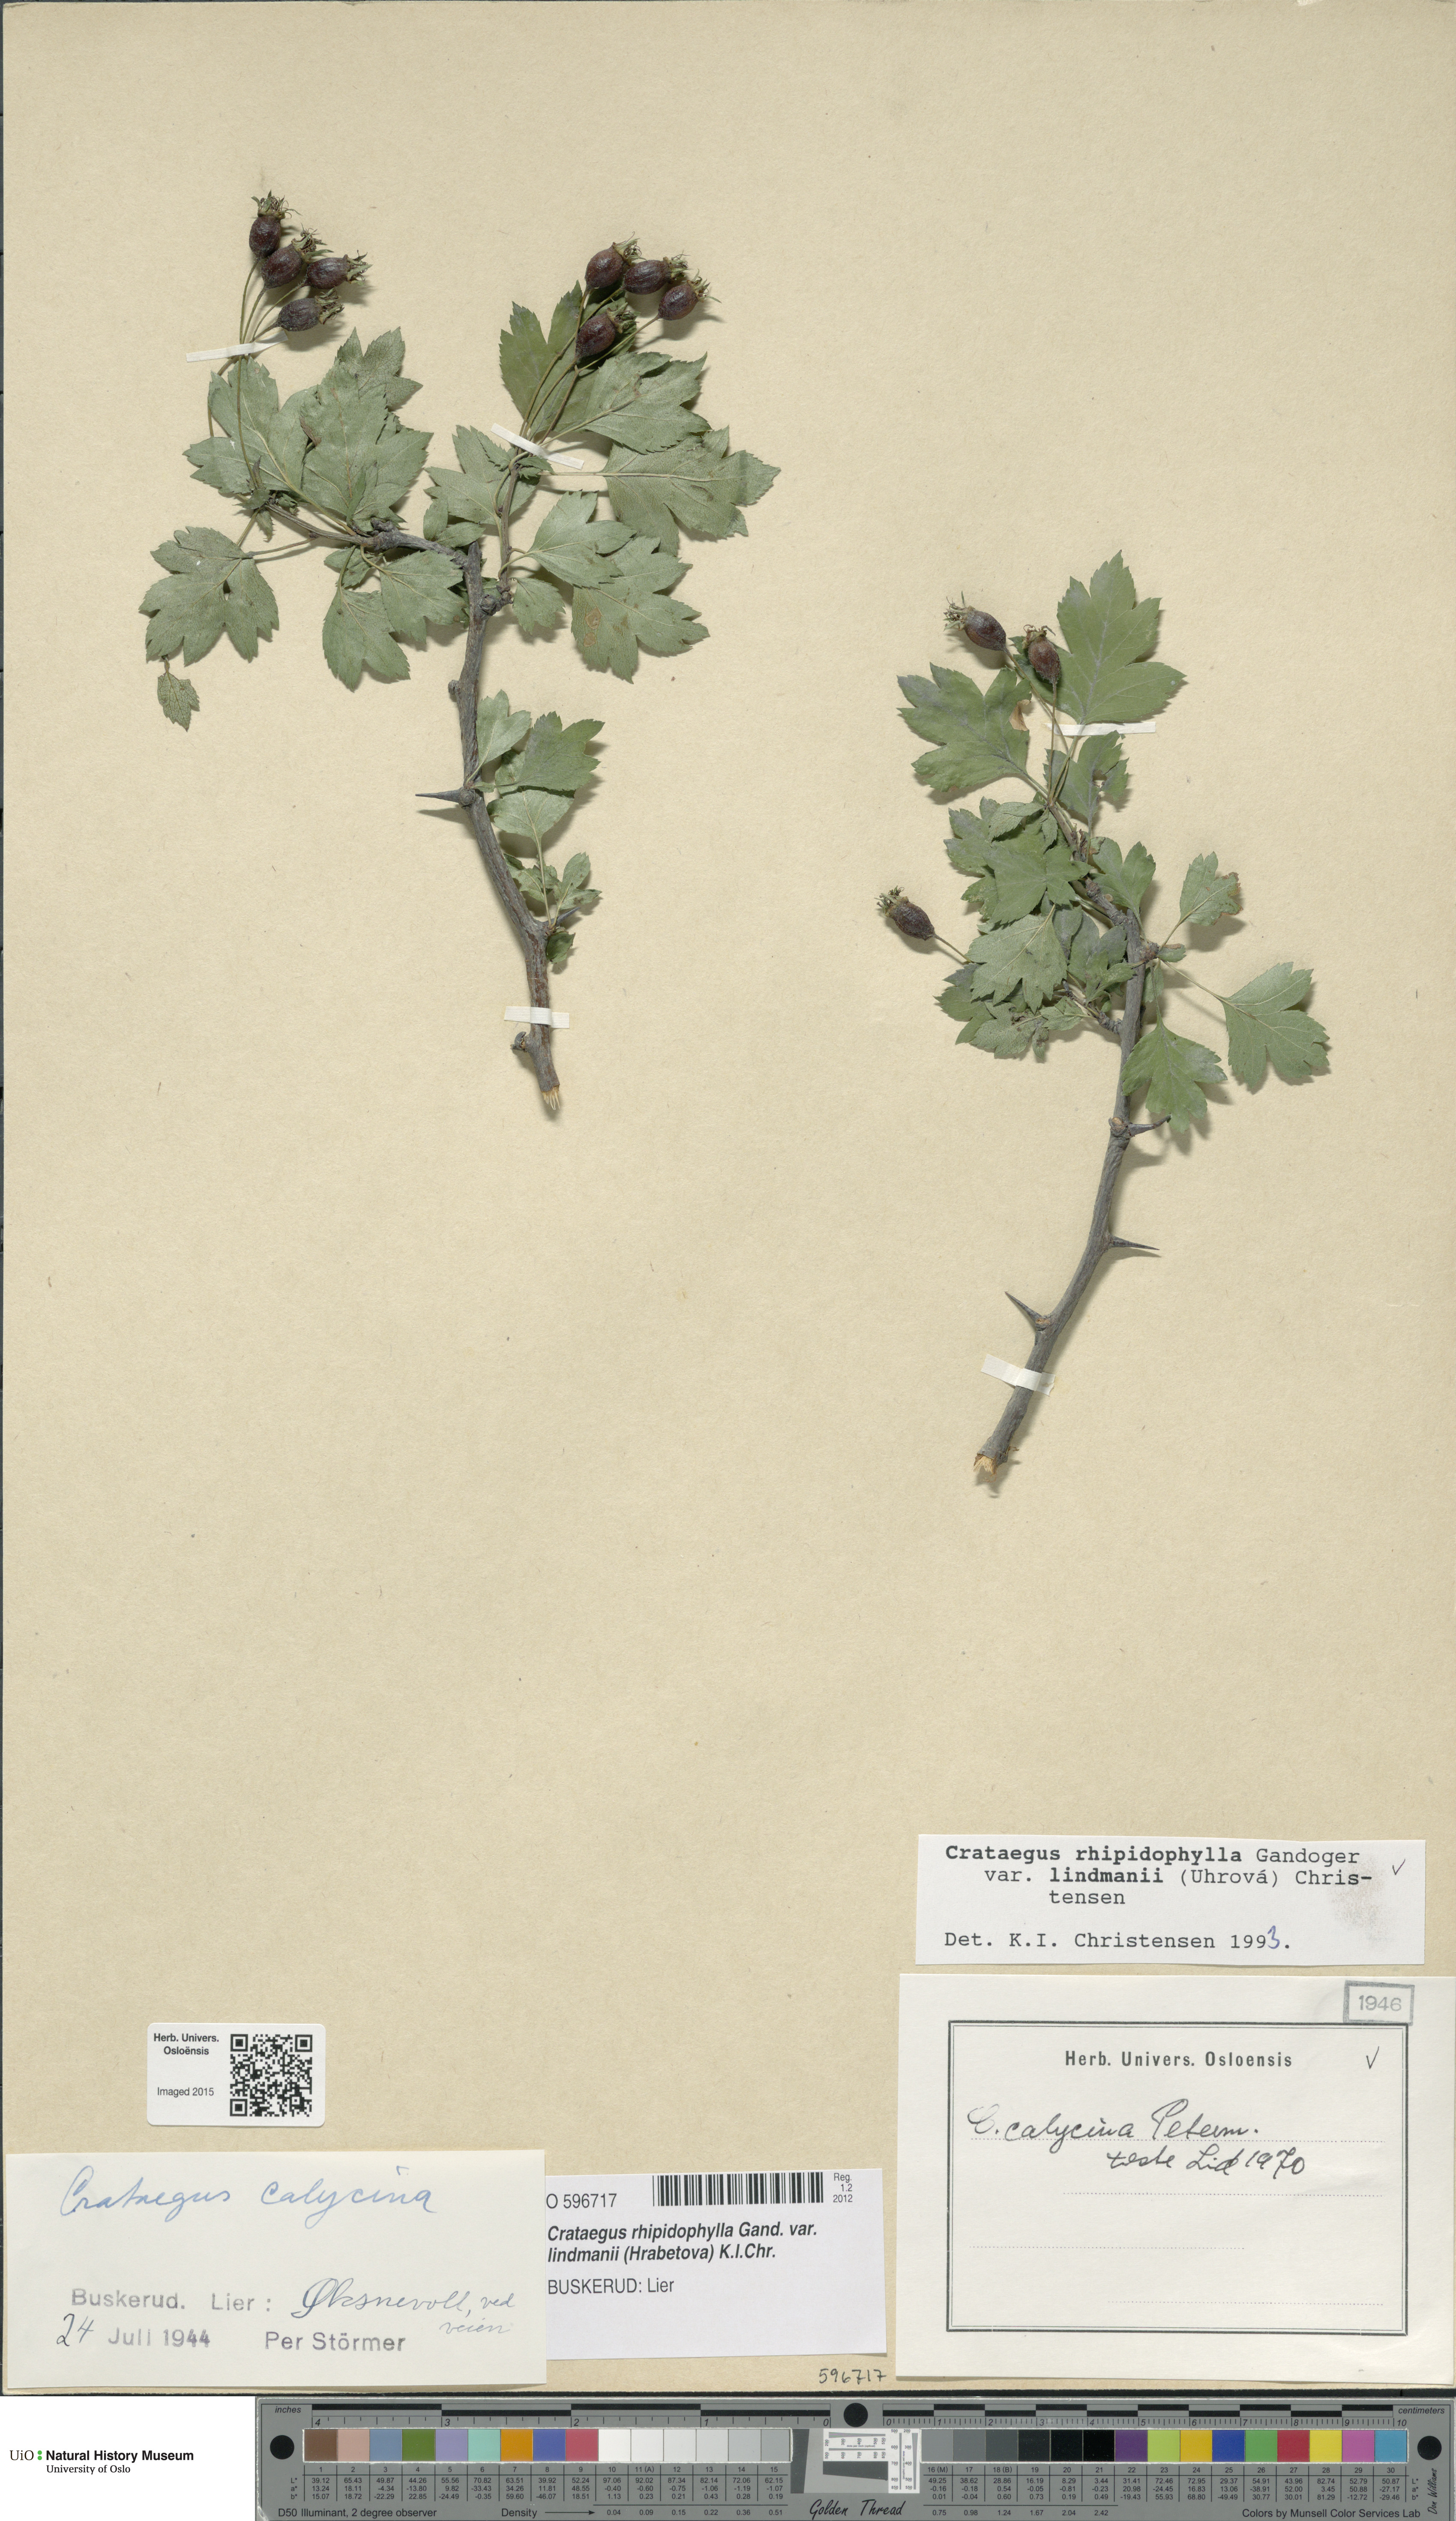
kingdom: Plantae
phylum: Tracheophyta
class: Magnoliopsida
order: Rosales
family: Rosaceae
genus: Crataegus
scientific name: Crataegus lindmanii
